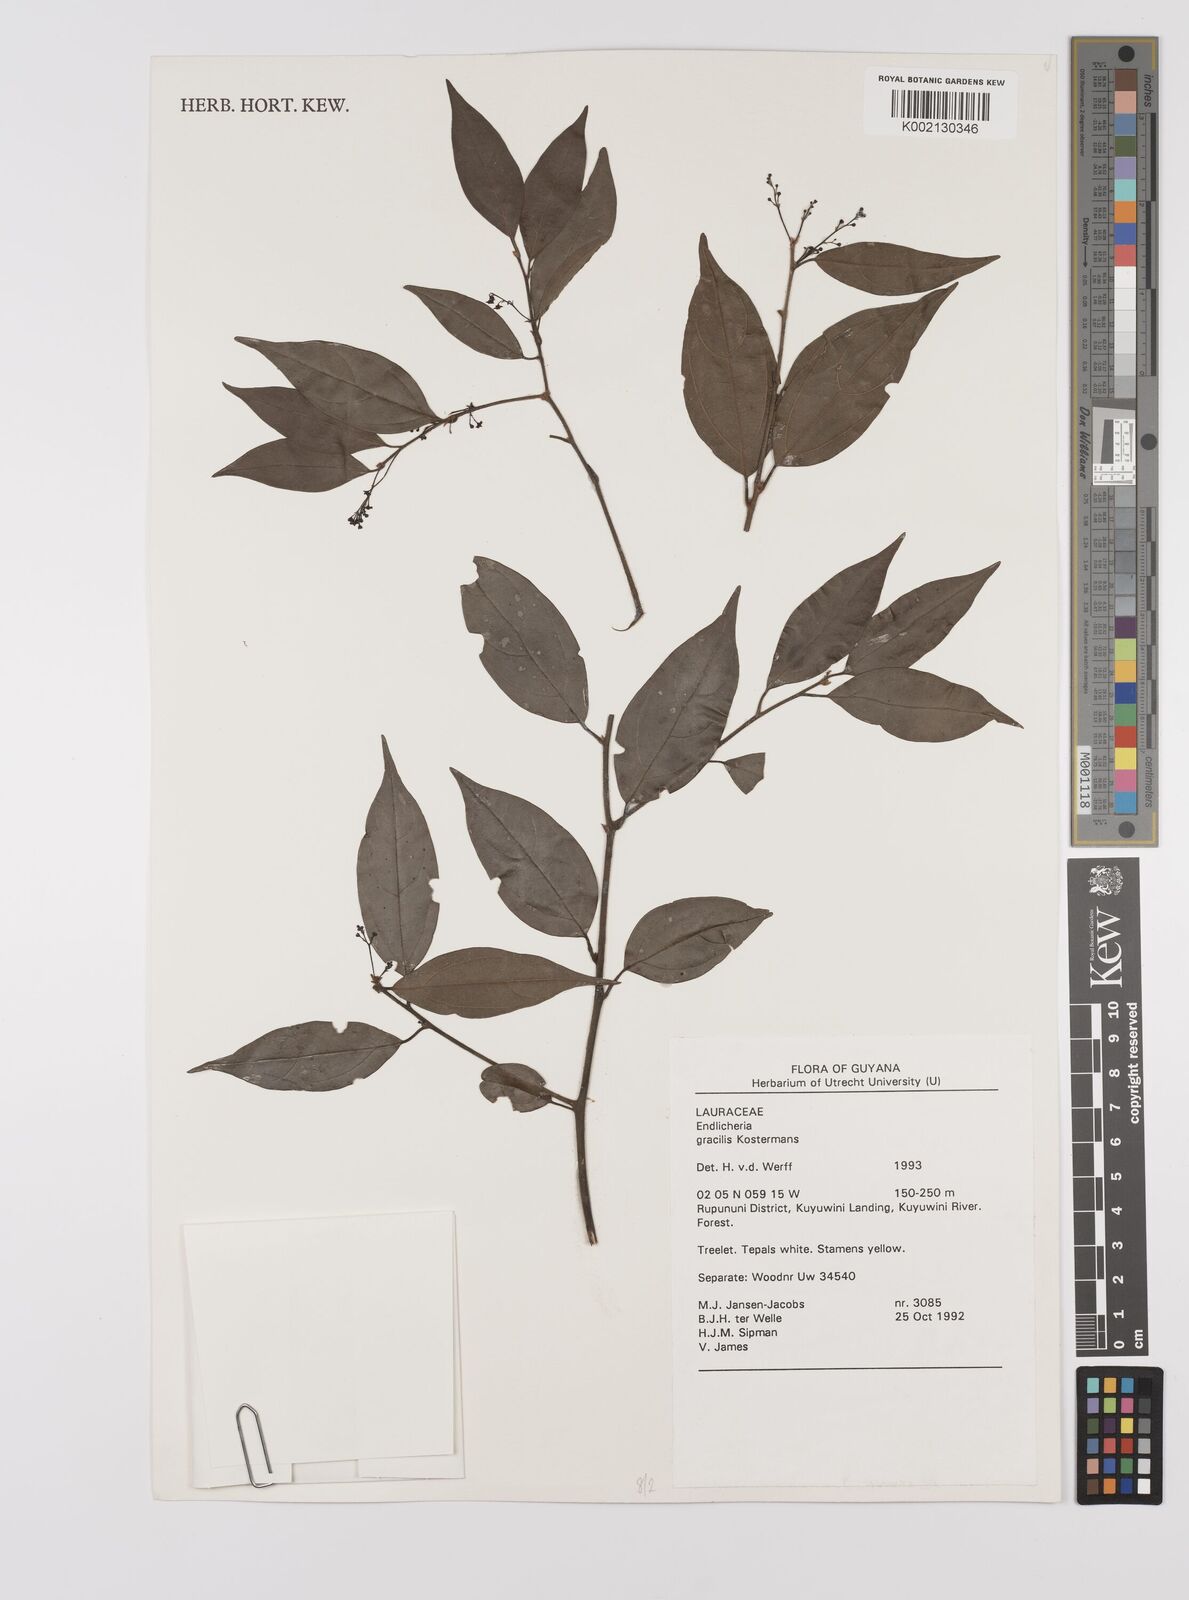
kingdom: Plantae
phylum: Tracheophyta
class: Magnoliopsida
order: Laurales
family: Lauraceae
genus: Endlicheria
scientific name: Endlicheria gracilis
